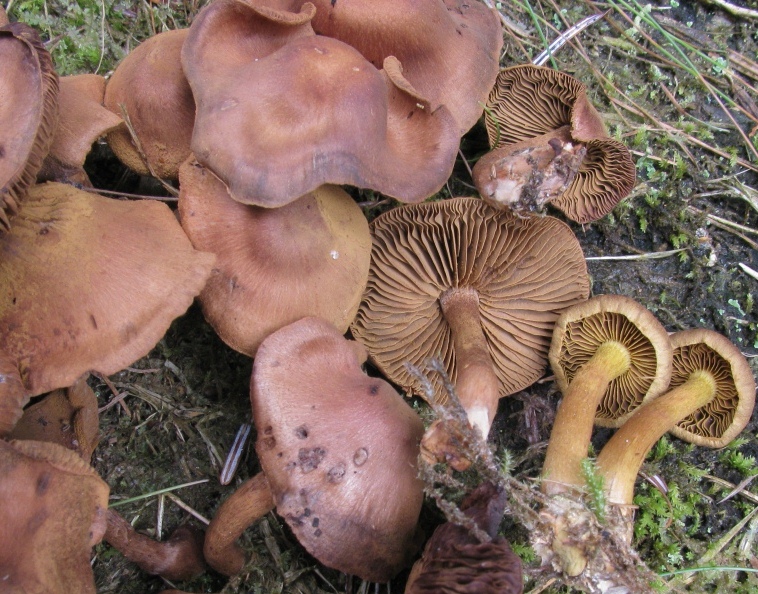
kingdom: Fungi
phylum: Basidiomycota
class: Agaricomycetes
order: Agaricales
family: Cortinariaceae
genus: Cortinarius
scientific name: Cortinarius cinnamomeus
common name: kanel-slørhat
